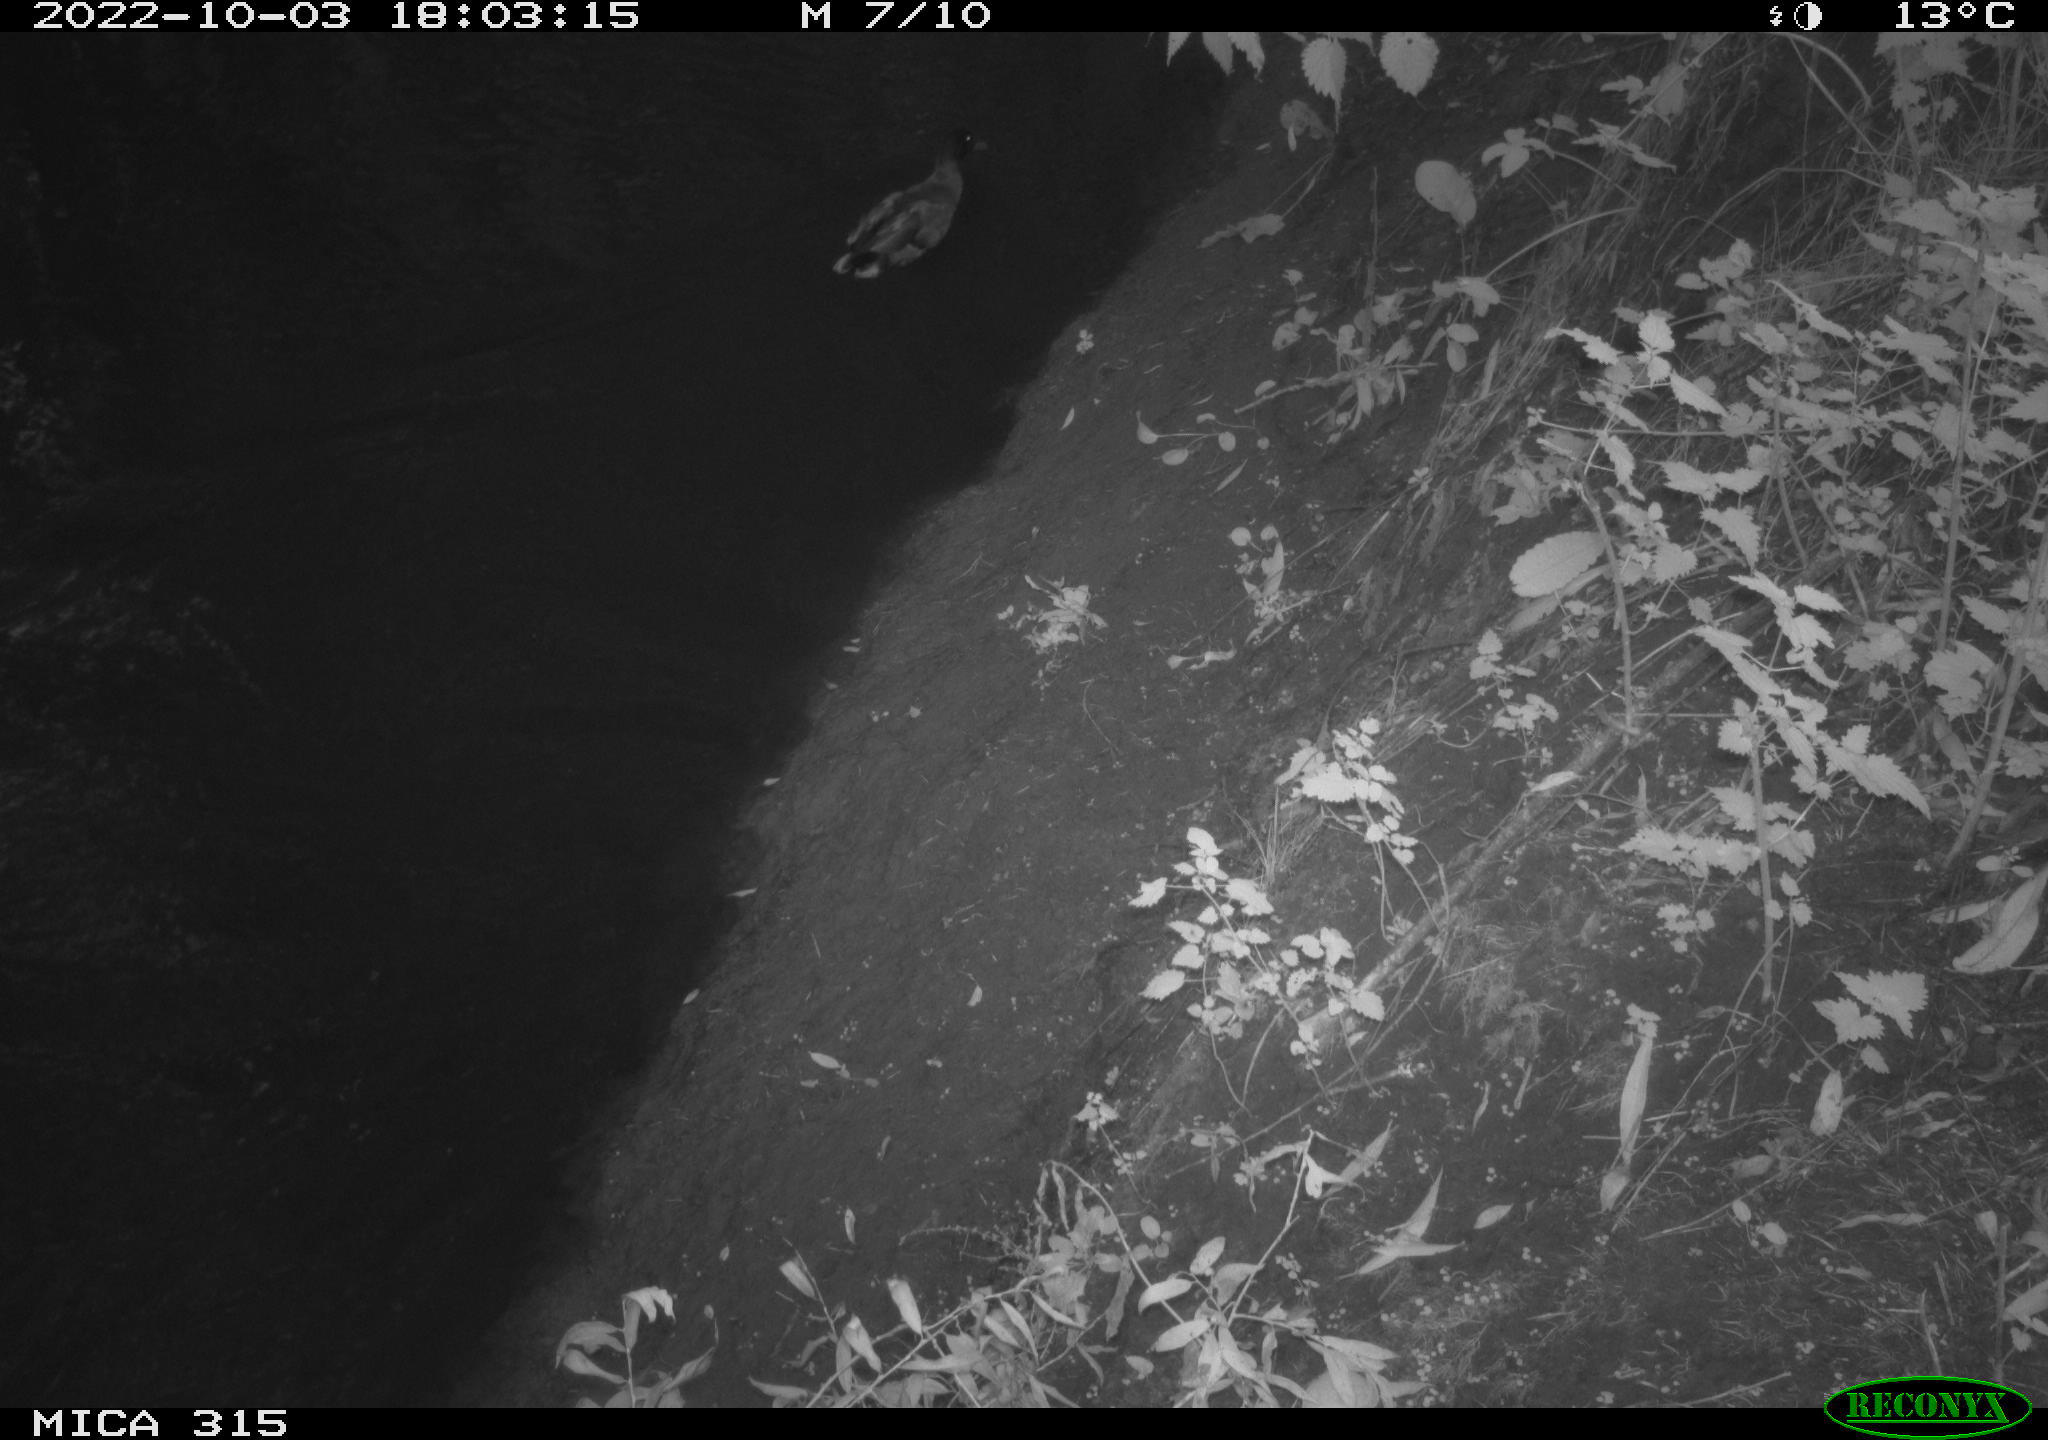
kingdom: Animalia
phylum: Chordata
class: Aves
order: Gruiformes
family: Rallidae
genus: Gallinula
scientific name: Gallinula chloropus
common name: Common moorhen
